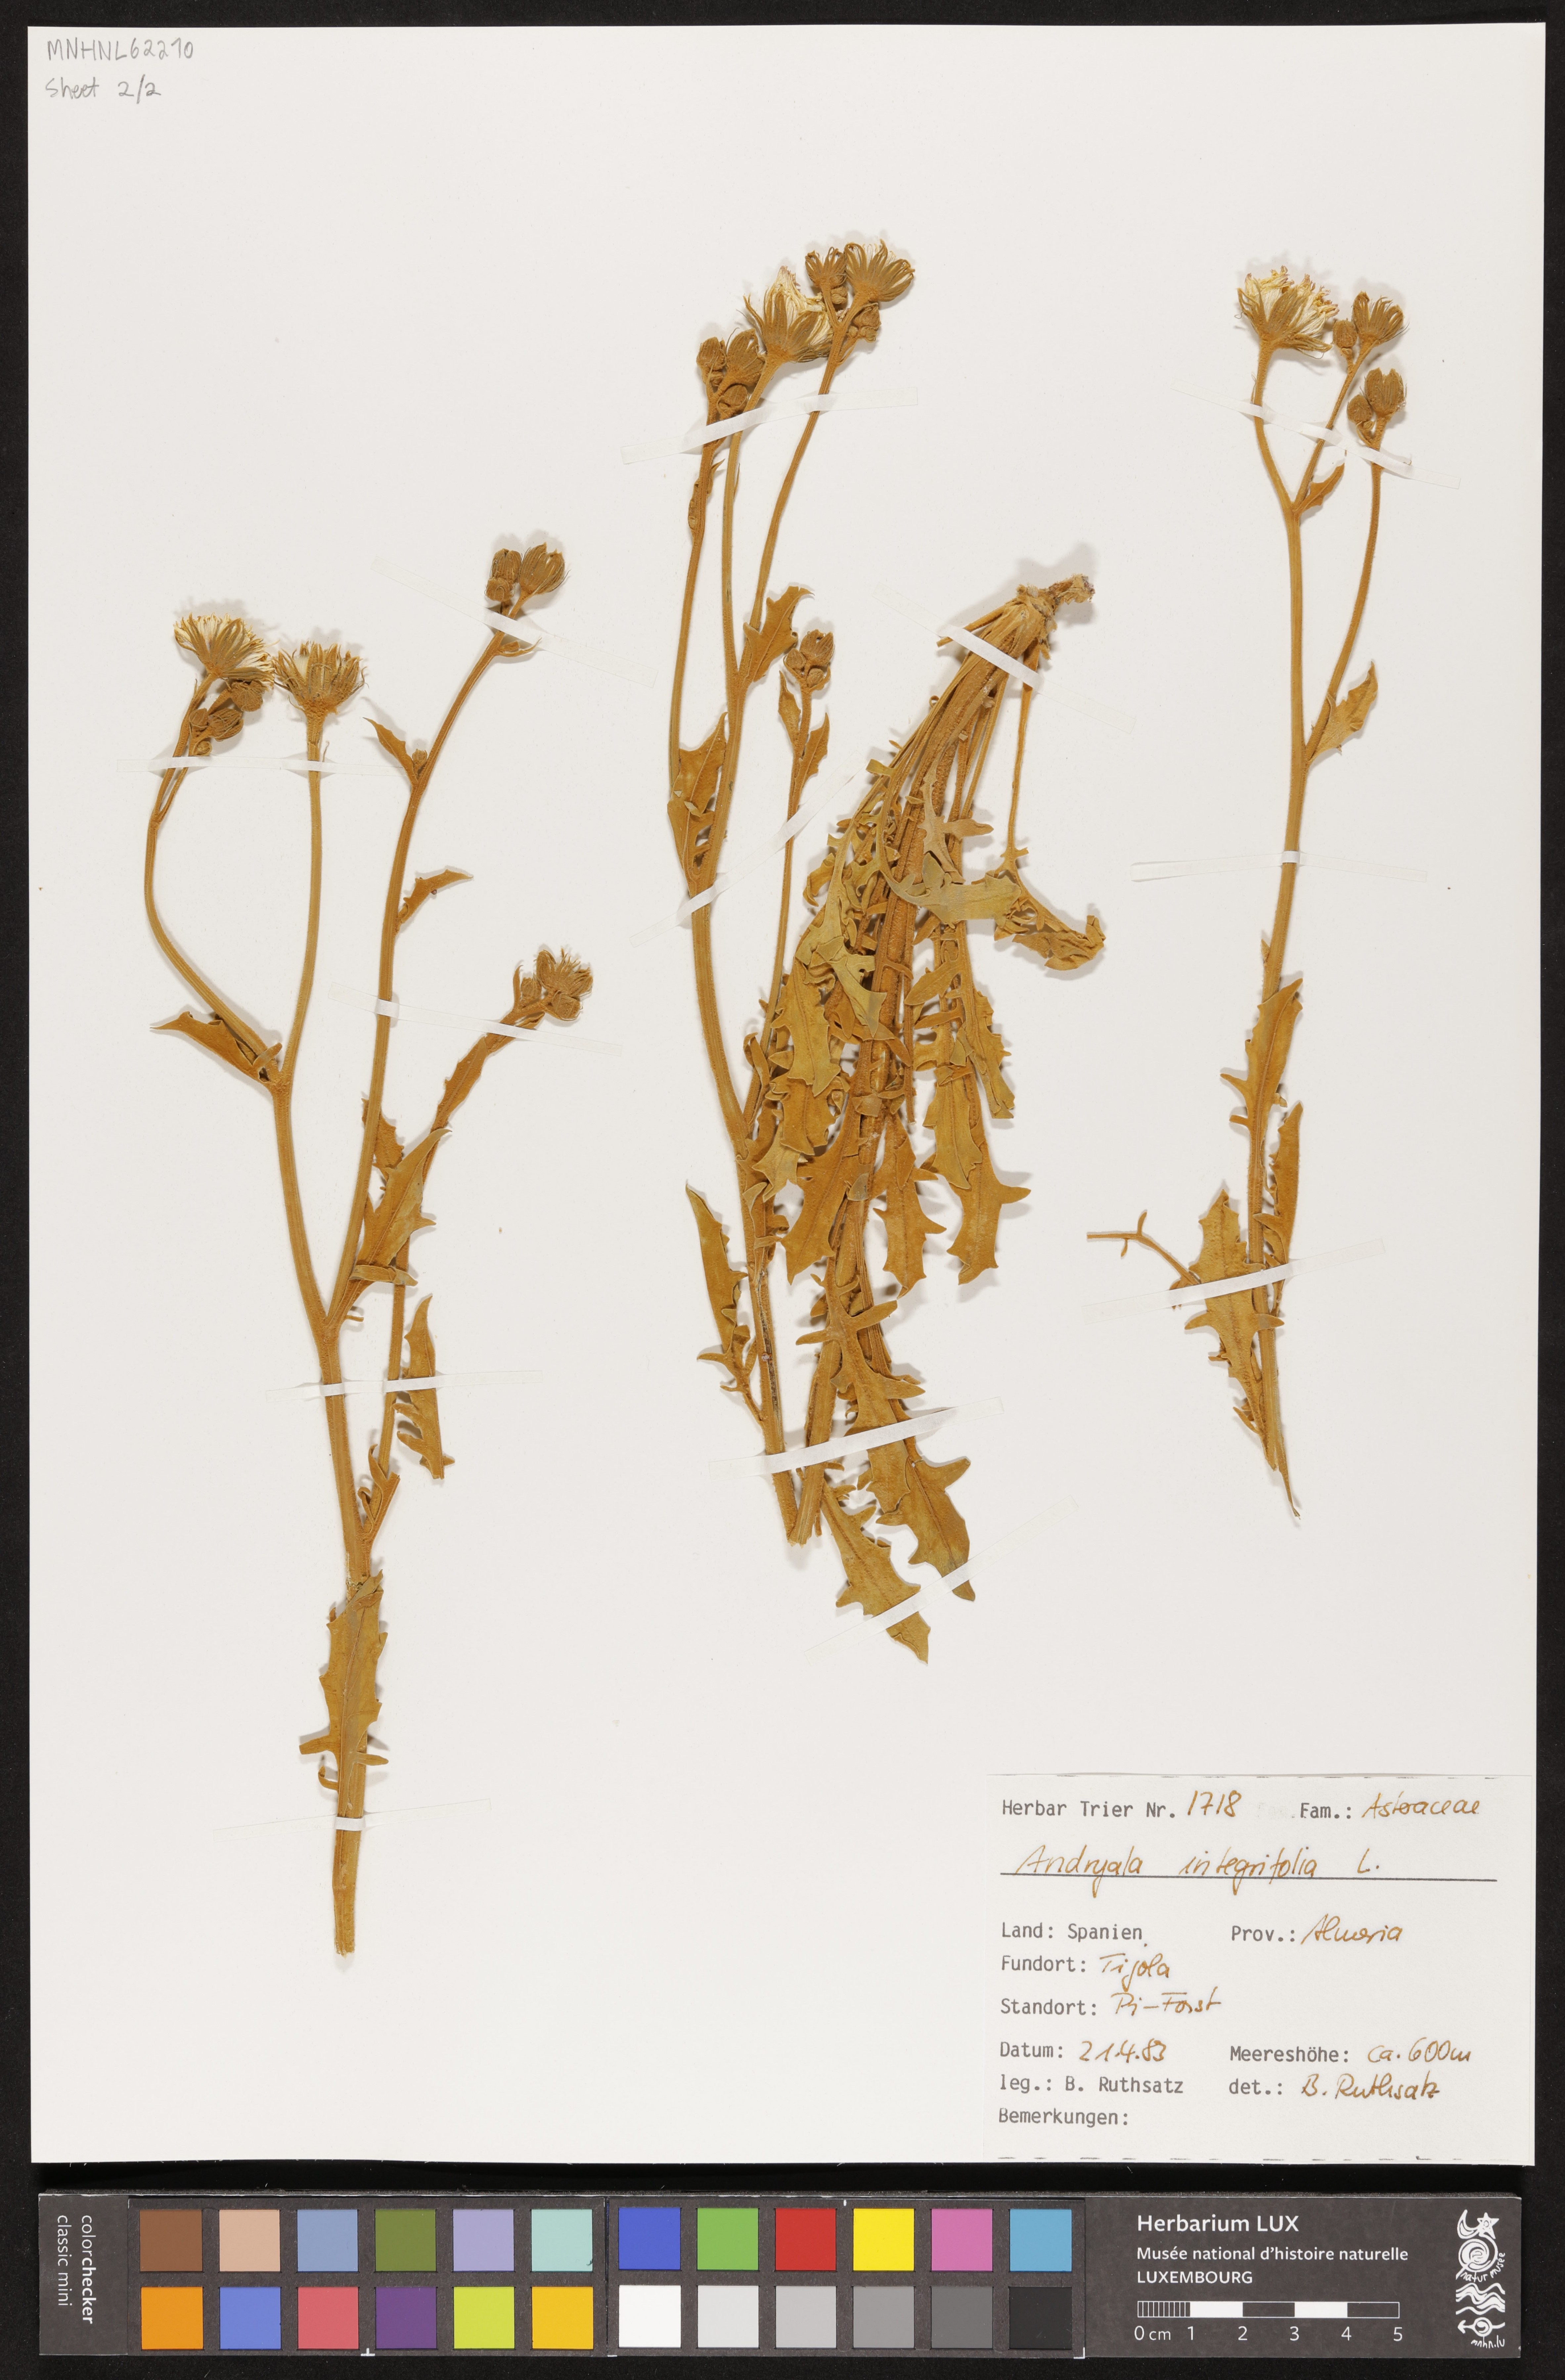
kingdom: Plantae
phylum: Tracheophyta
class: Magnoliopsida
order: Asterales
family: Asteraceae
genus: Andryala
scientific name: Andryala integrifolia
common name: Common andryala
